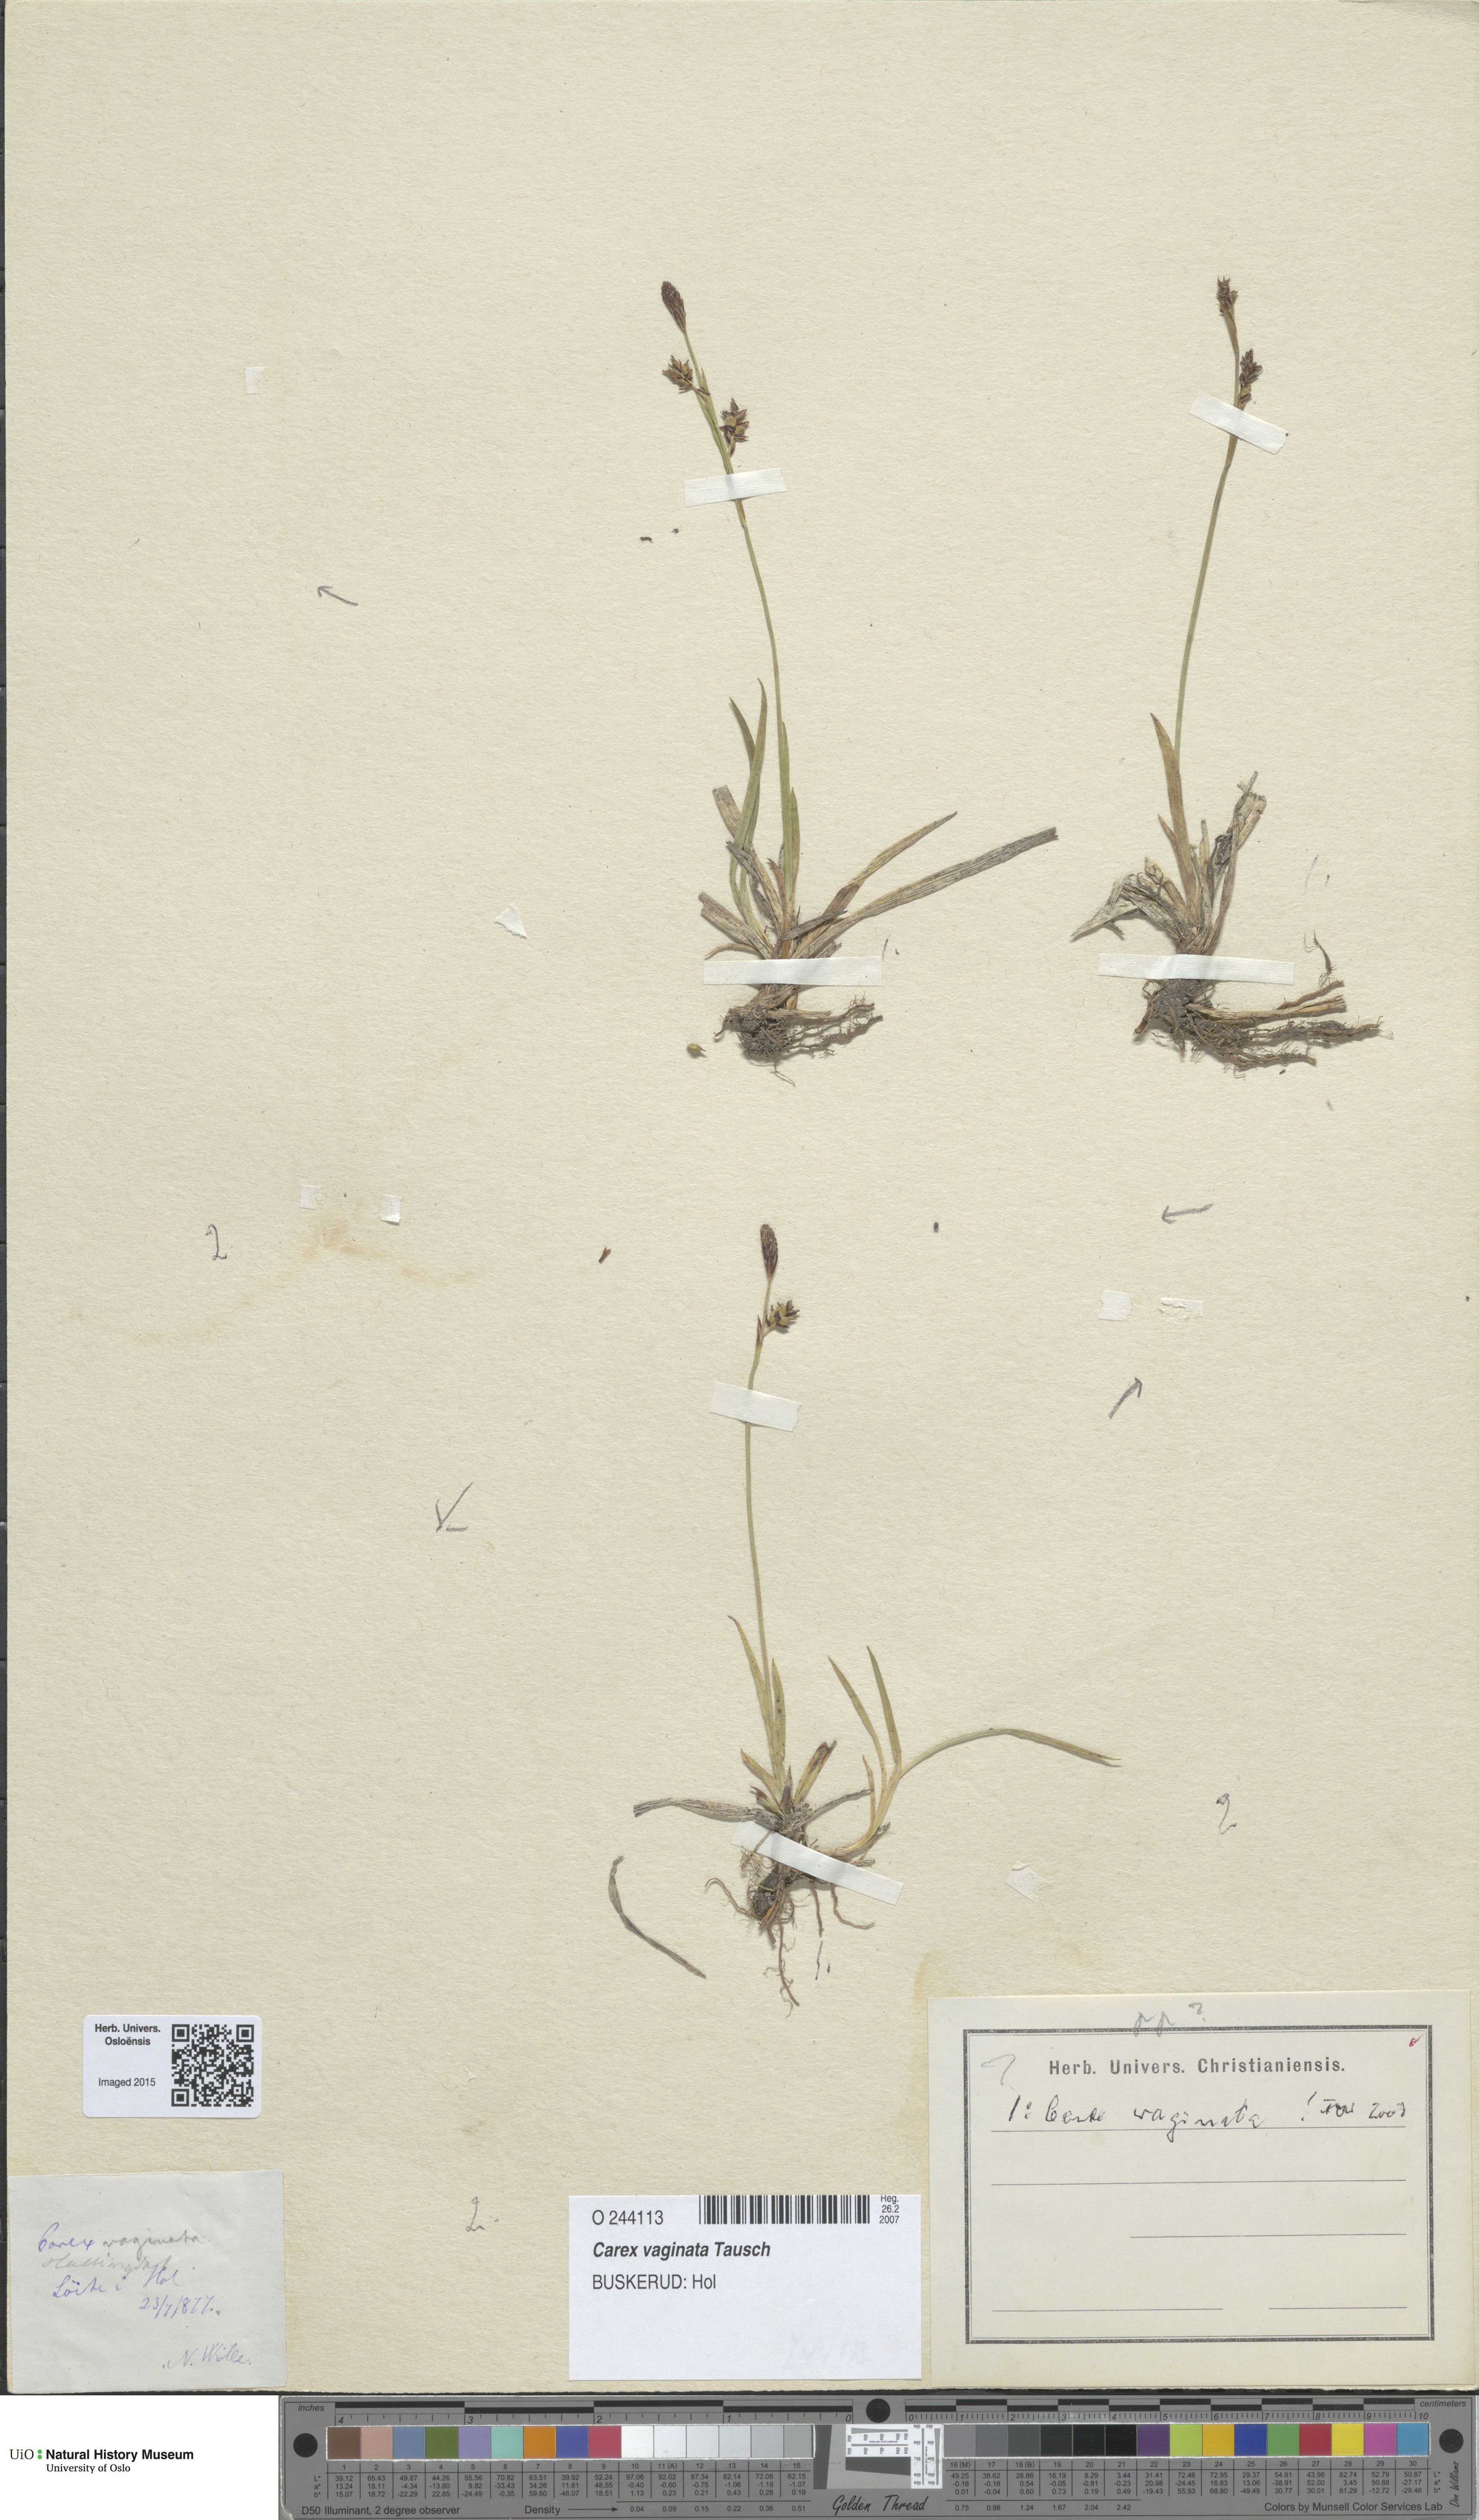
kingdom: Plantae
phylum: Tracheophyta
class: Liliopsida
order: Poales
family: Cyperaceae
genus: Carex
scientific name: Carex vaginata
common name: Sheathed sedge
